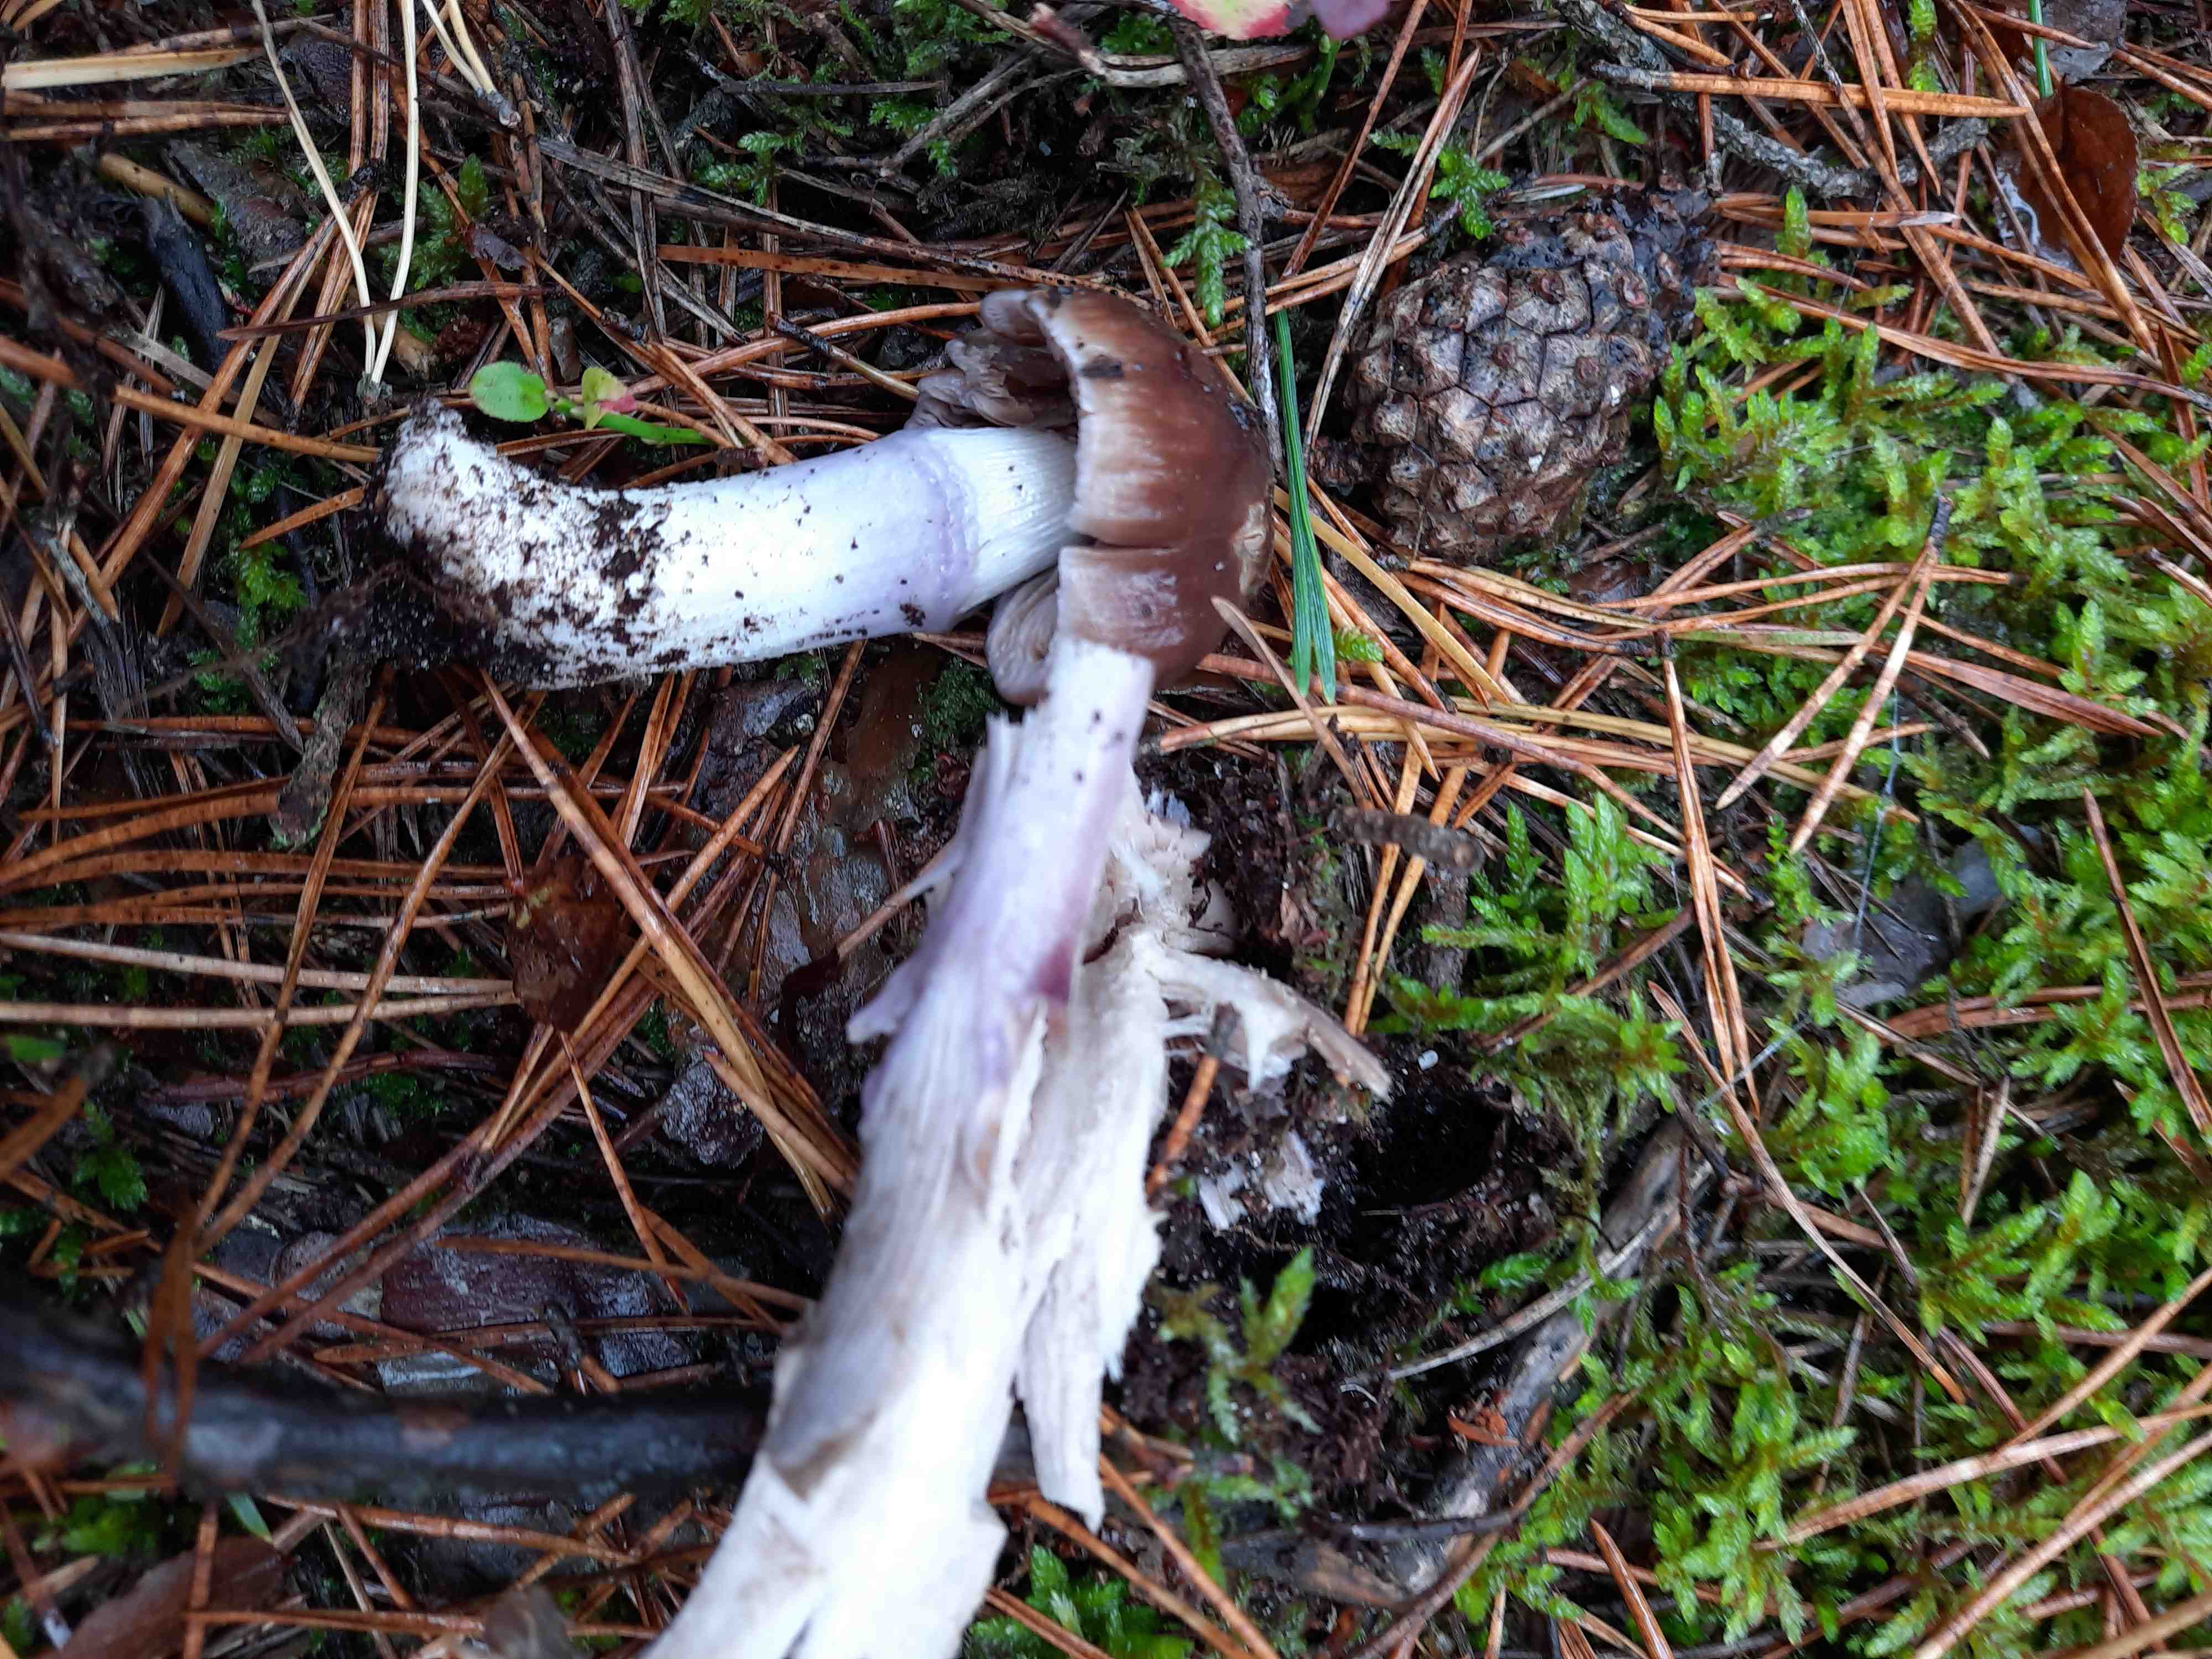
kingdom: Fungi
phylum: Basidiomycota
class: Agaricomycetes
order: Agaricales
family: Cortinariaceae
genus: Cortinarius
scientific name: Cortinarius
